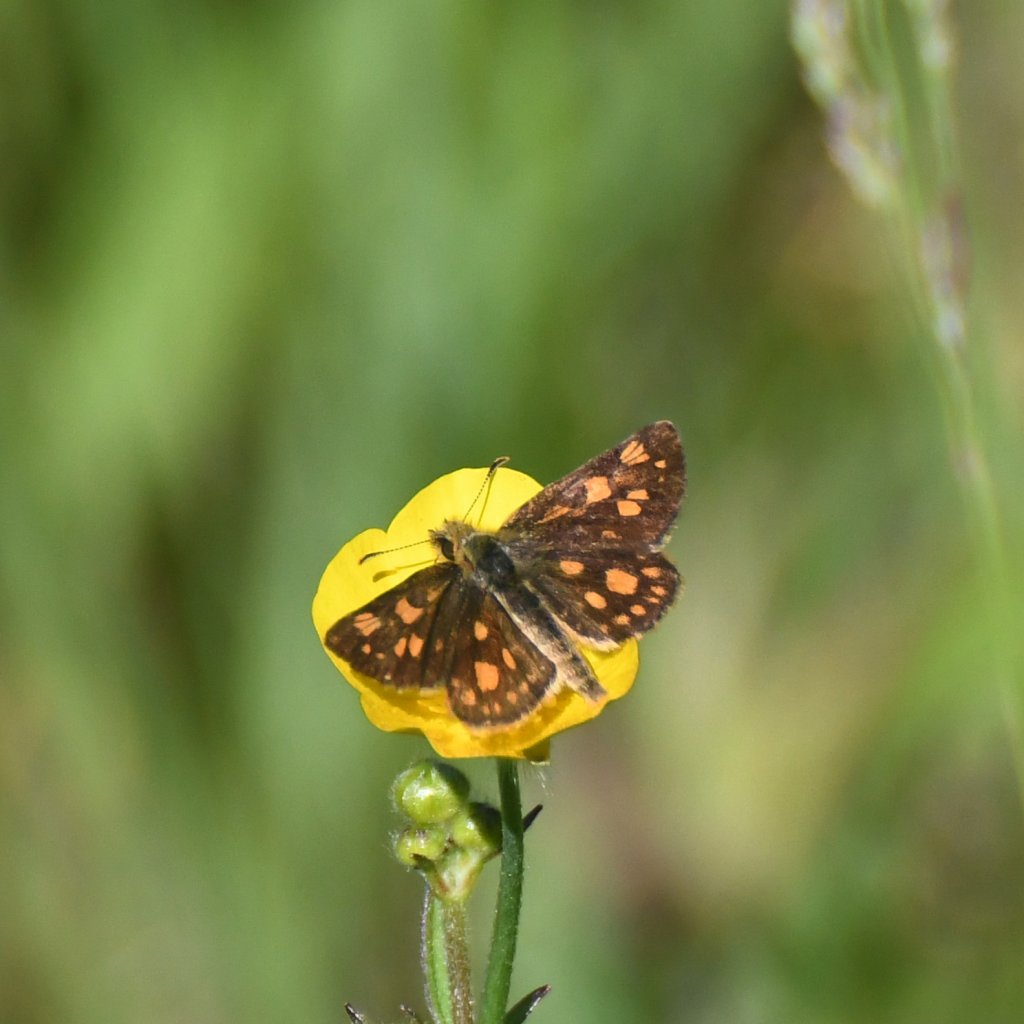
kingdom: Animalia
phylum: Arthropoda
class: Insecta
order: Lepidoptera
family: Hesperiidae
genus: Carterocephalus
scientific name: Carterocephalus palaemon
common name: Chequered Skipper
